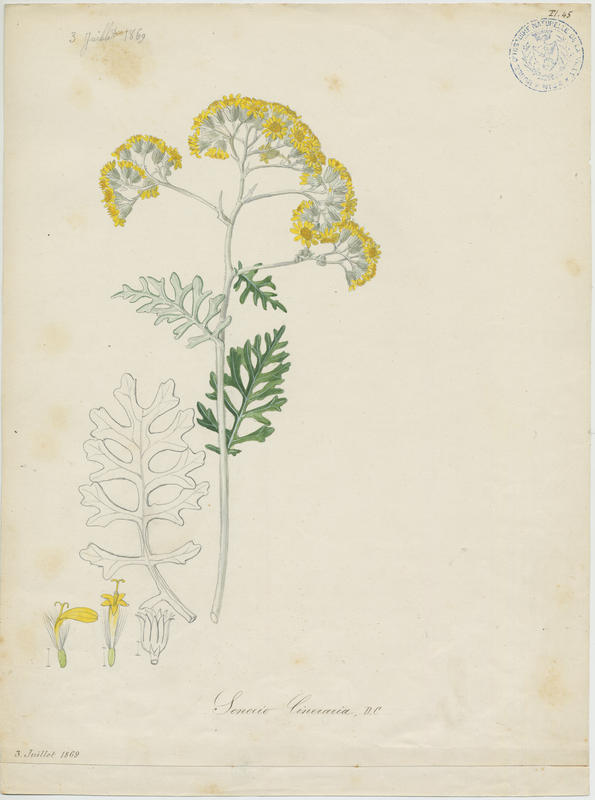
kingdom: Plantae
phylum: Tracheophyta
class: Magnoliopsida
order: Asterales
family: Asteraceae
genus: Jacobaea
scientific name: Jacobaea maritima
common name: Silver ragwort
